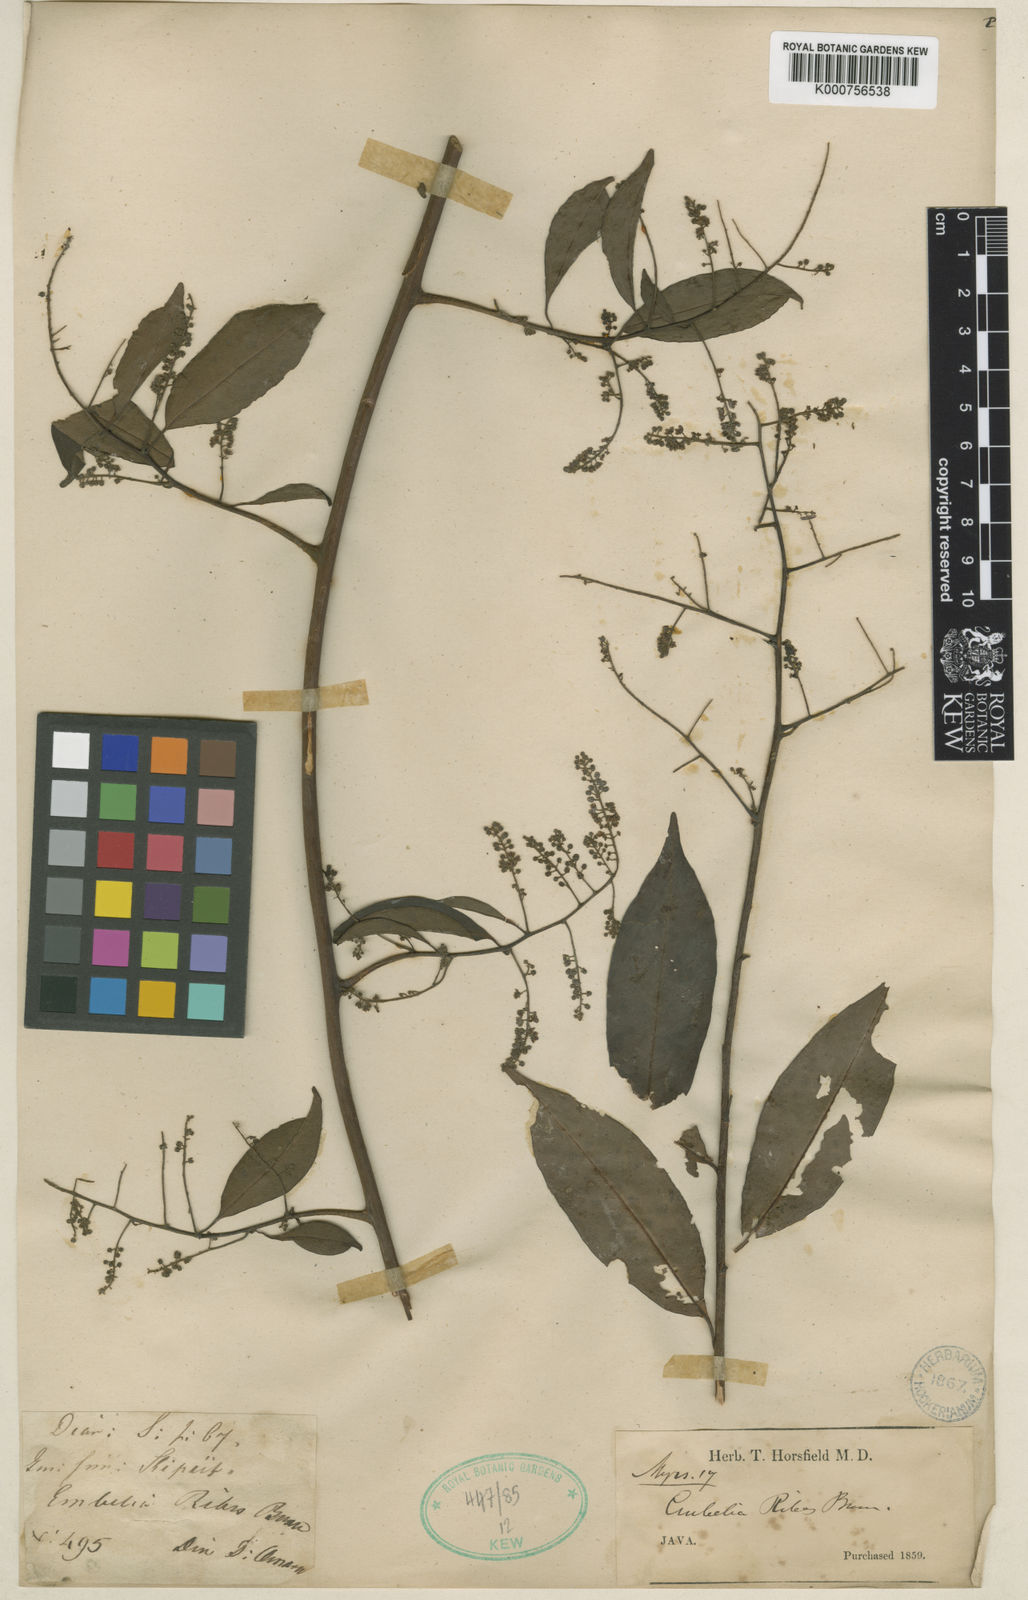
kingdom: Plantae
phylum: Tracheophyta
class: Magnoliopsida
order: Ericales
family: Primulaceae
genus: Embelia
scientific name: Embelia ribes
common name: Vidanga
